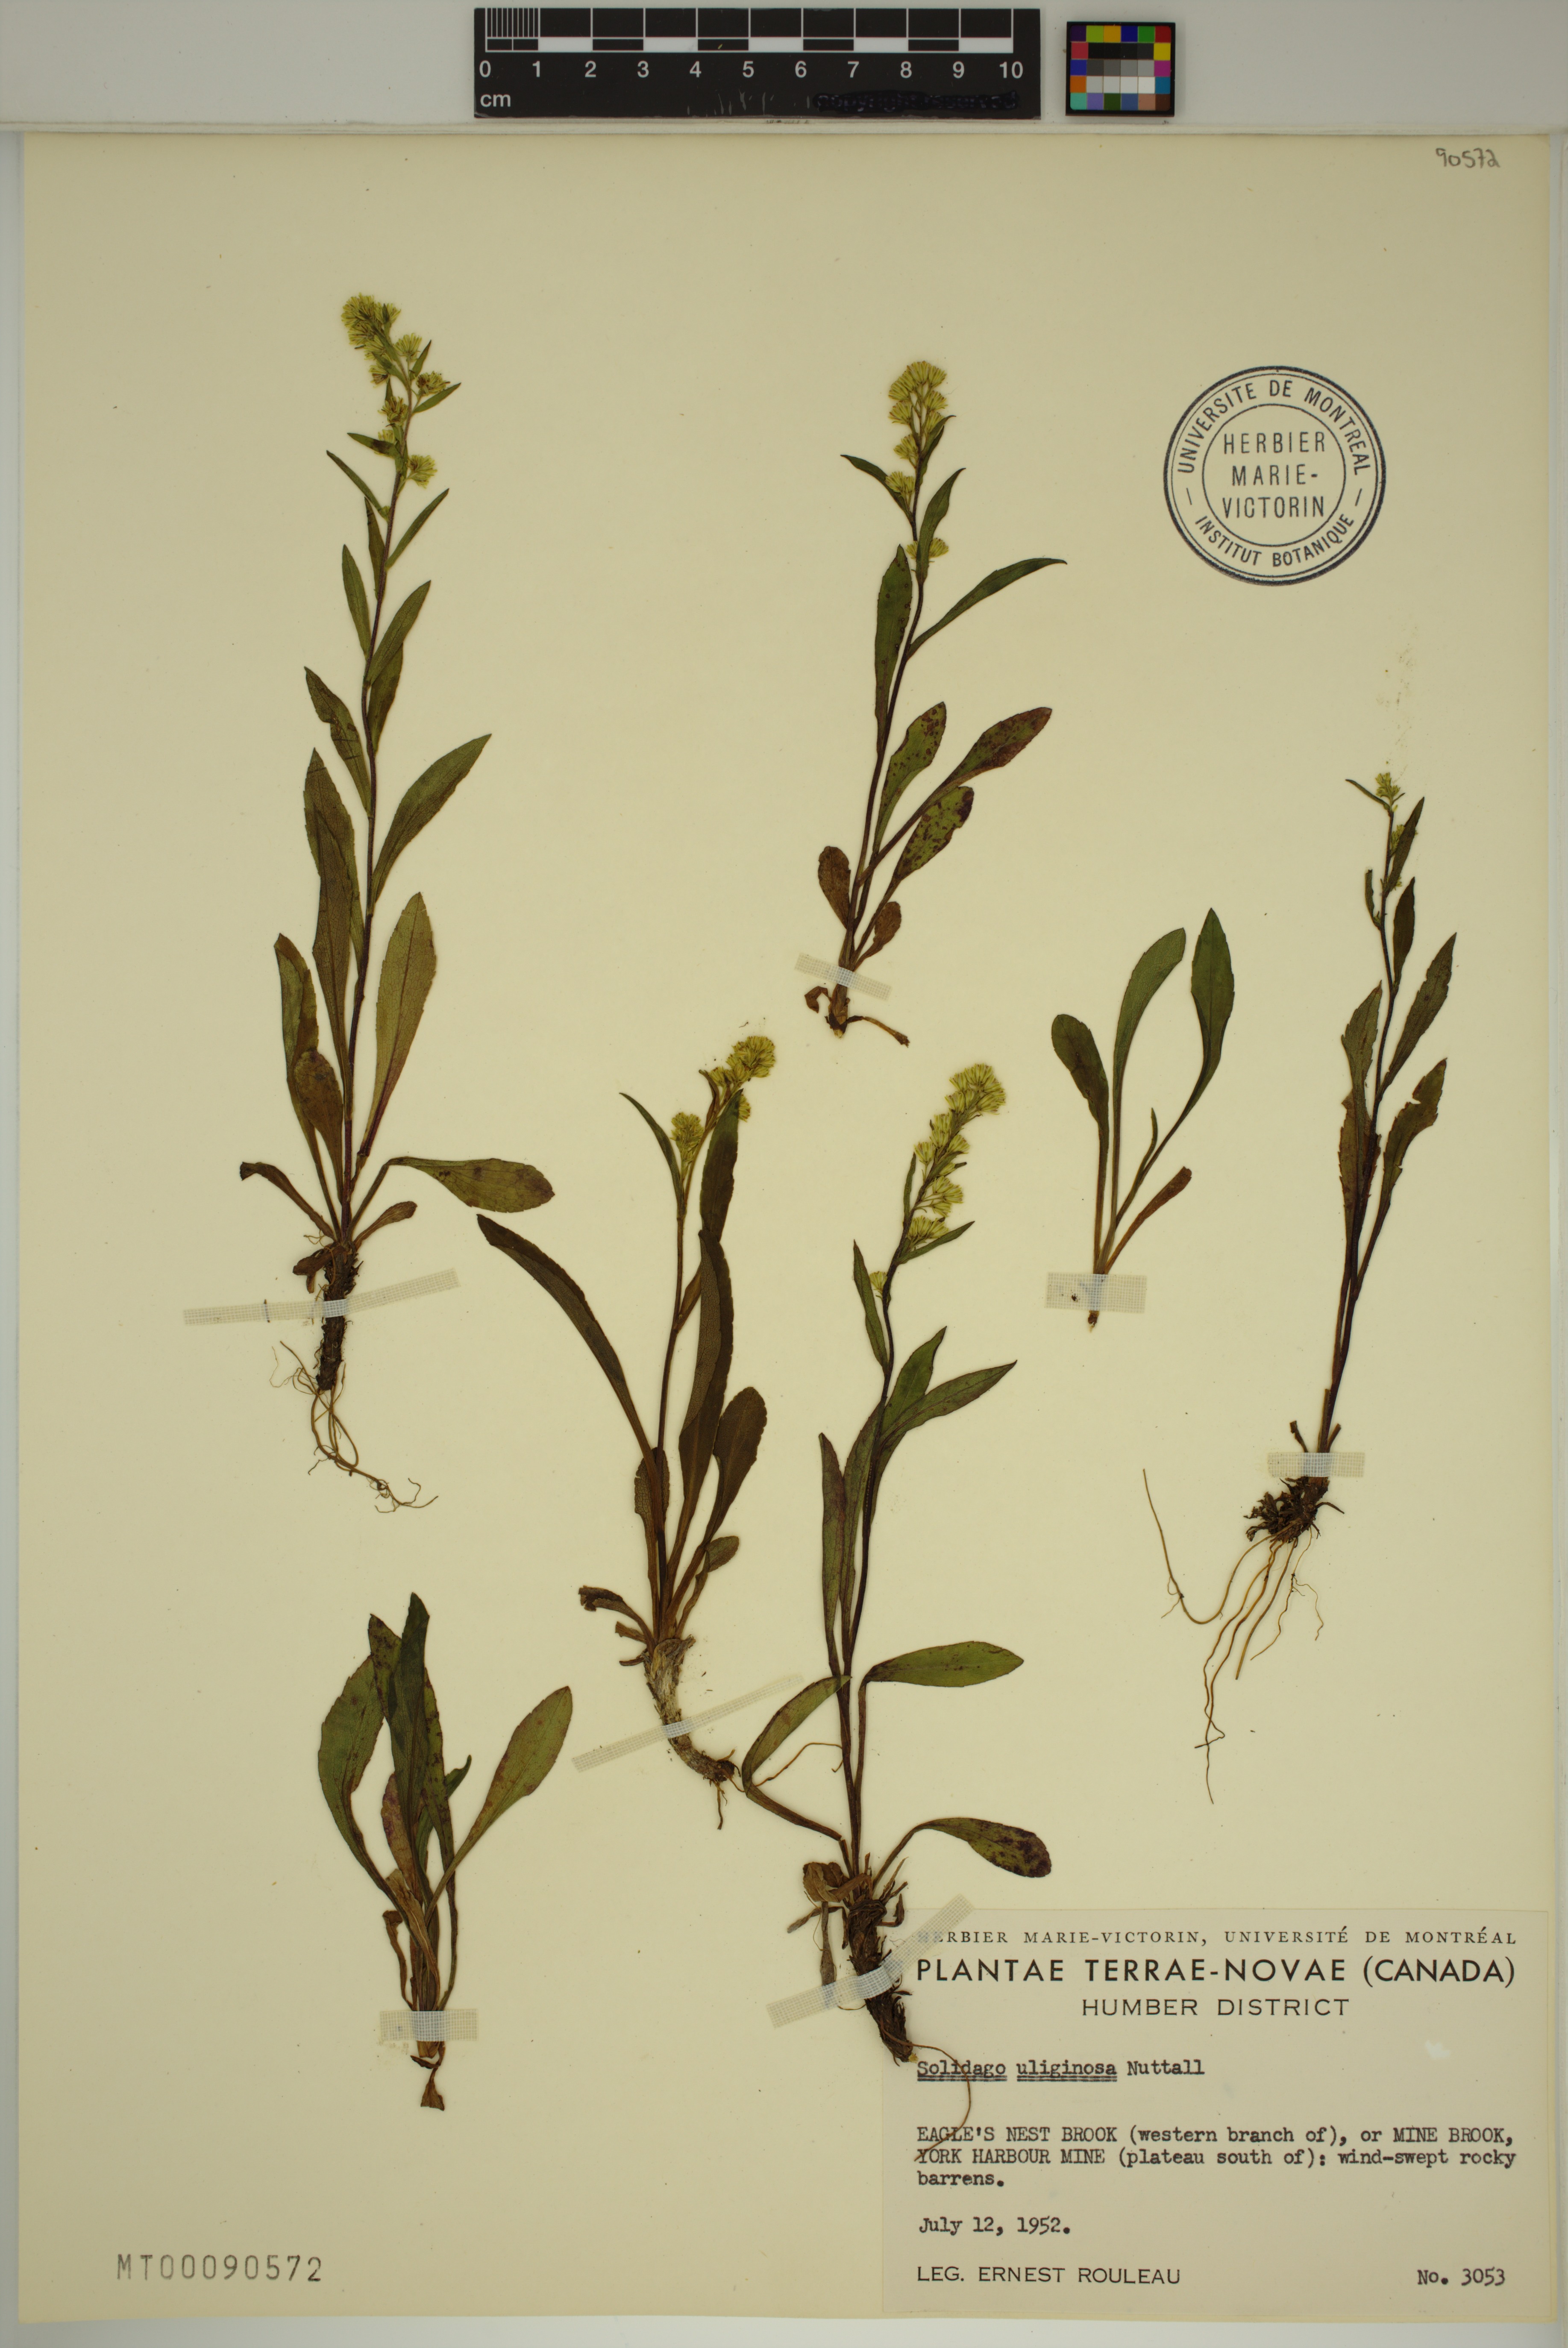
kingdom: Plantae
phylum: Tracheophyta
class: Magnoliopsida
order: Asterales
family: Asteraceae
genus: Solidago
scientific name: Solidago uliginosa
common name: Bog goldenrod
